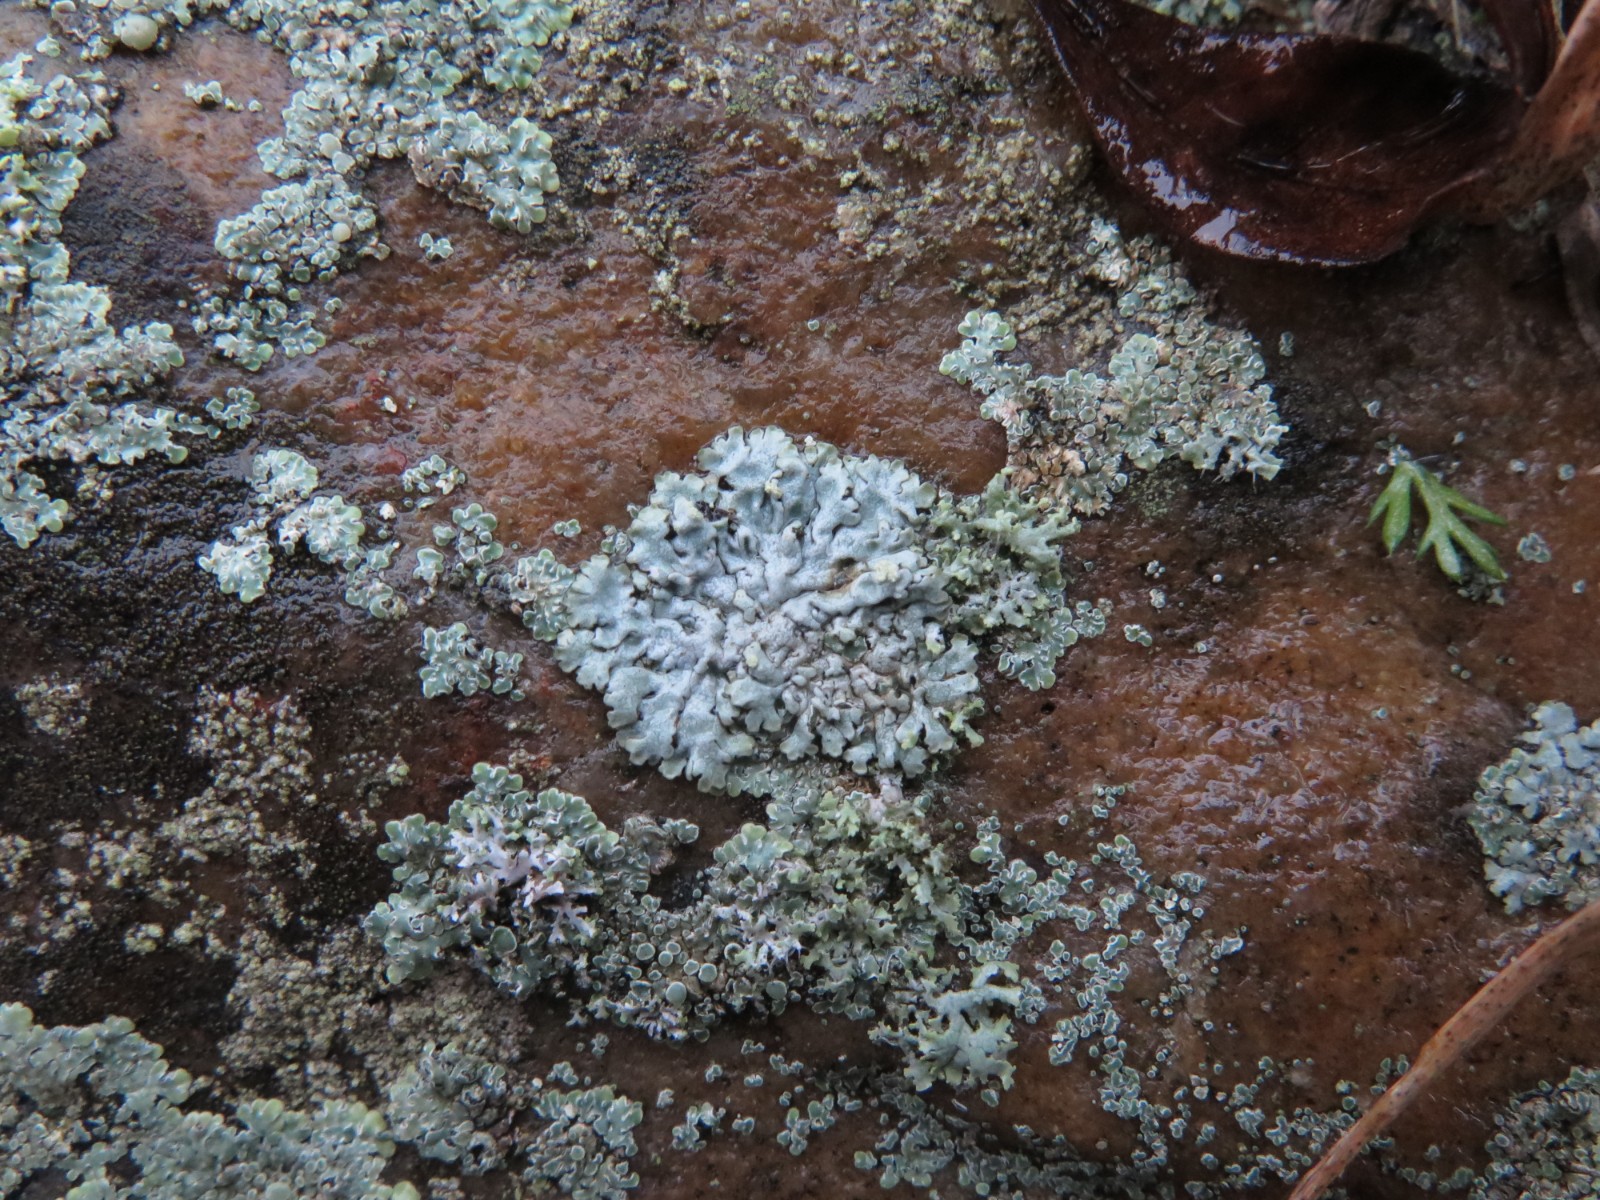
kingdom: Fungi
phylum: Ascomycota
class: Lecanoromycetes
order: Caliciales
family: Physciaceae
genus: Physcia
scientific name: Physcia caesia
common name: blågrå rosetlav
